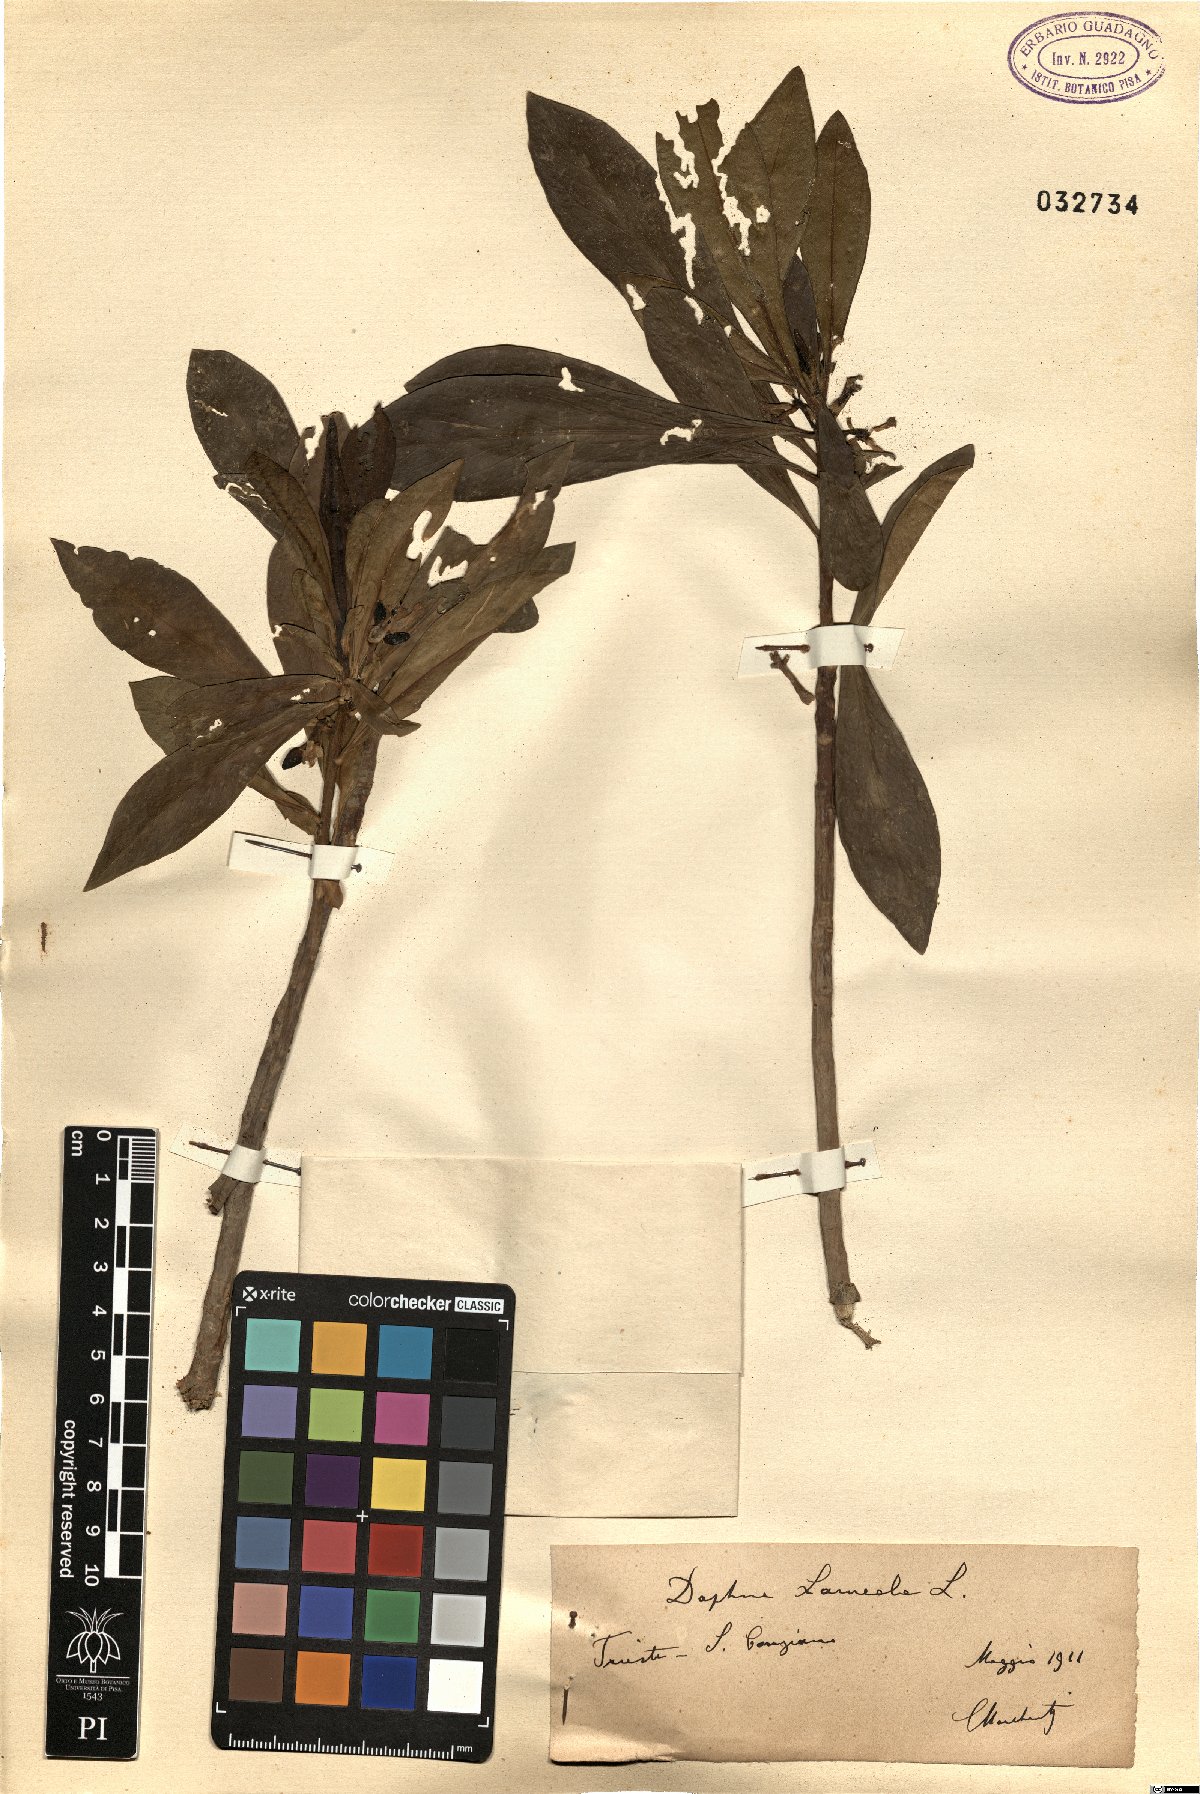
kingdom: Plantae
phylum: Tracheophyta
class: Magnoliopsida
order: Malvales
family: Thymelaeaceae
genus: Daphne
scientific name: Daphne laureola
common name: Spurge-laurel
